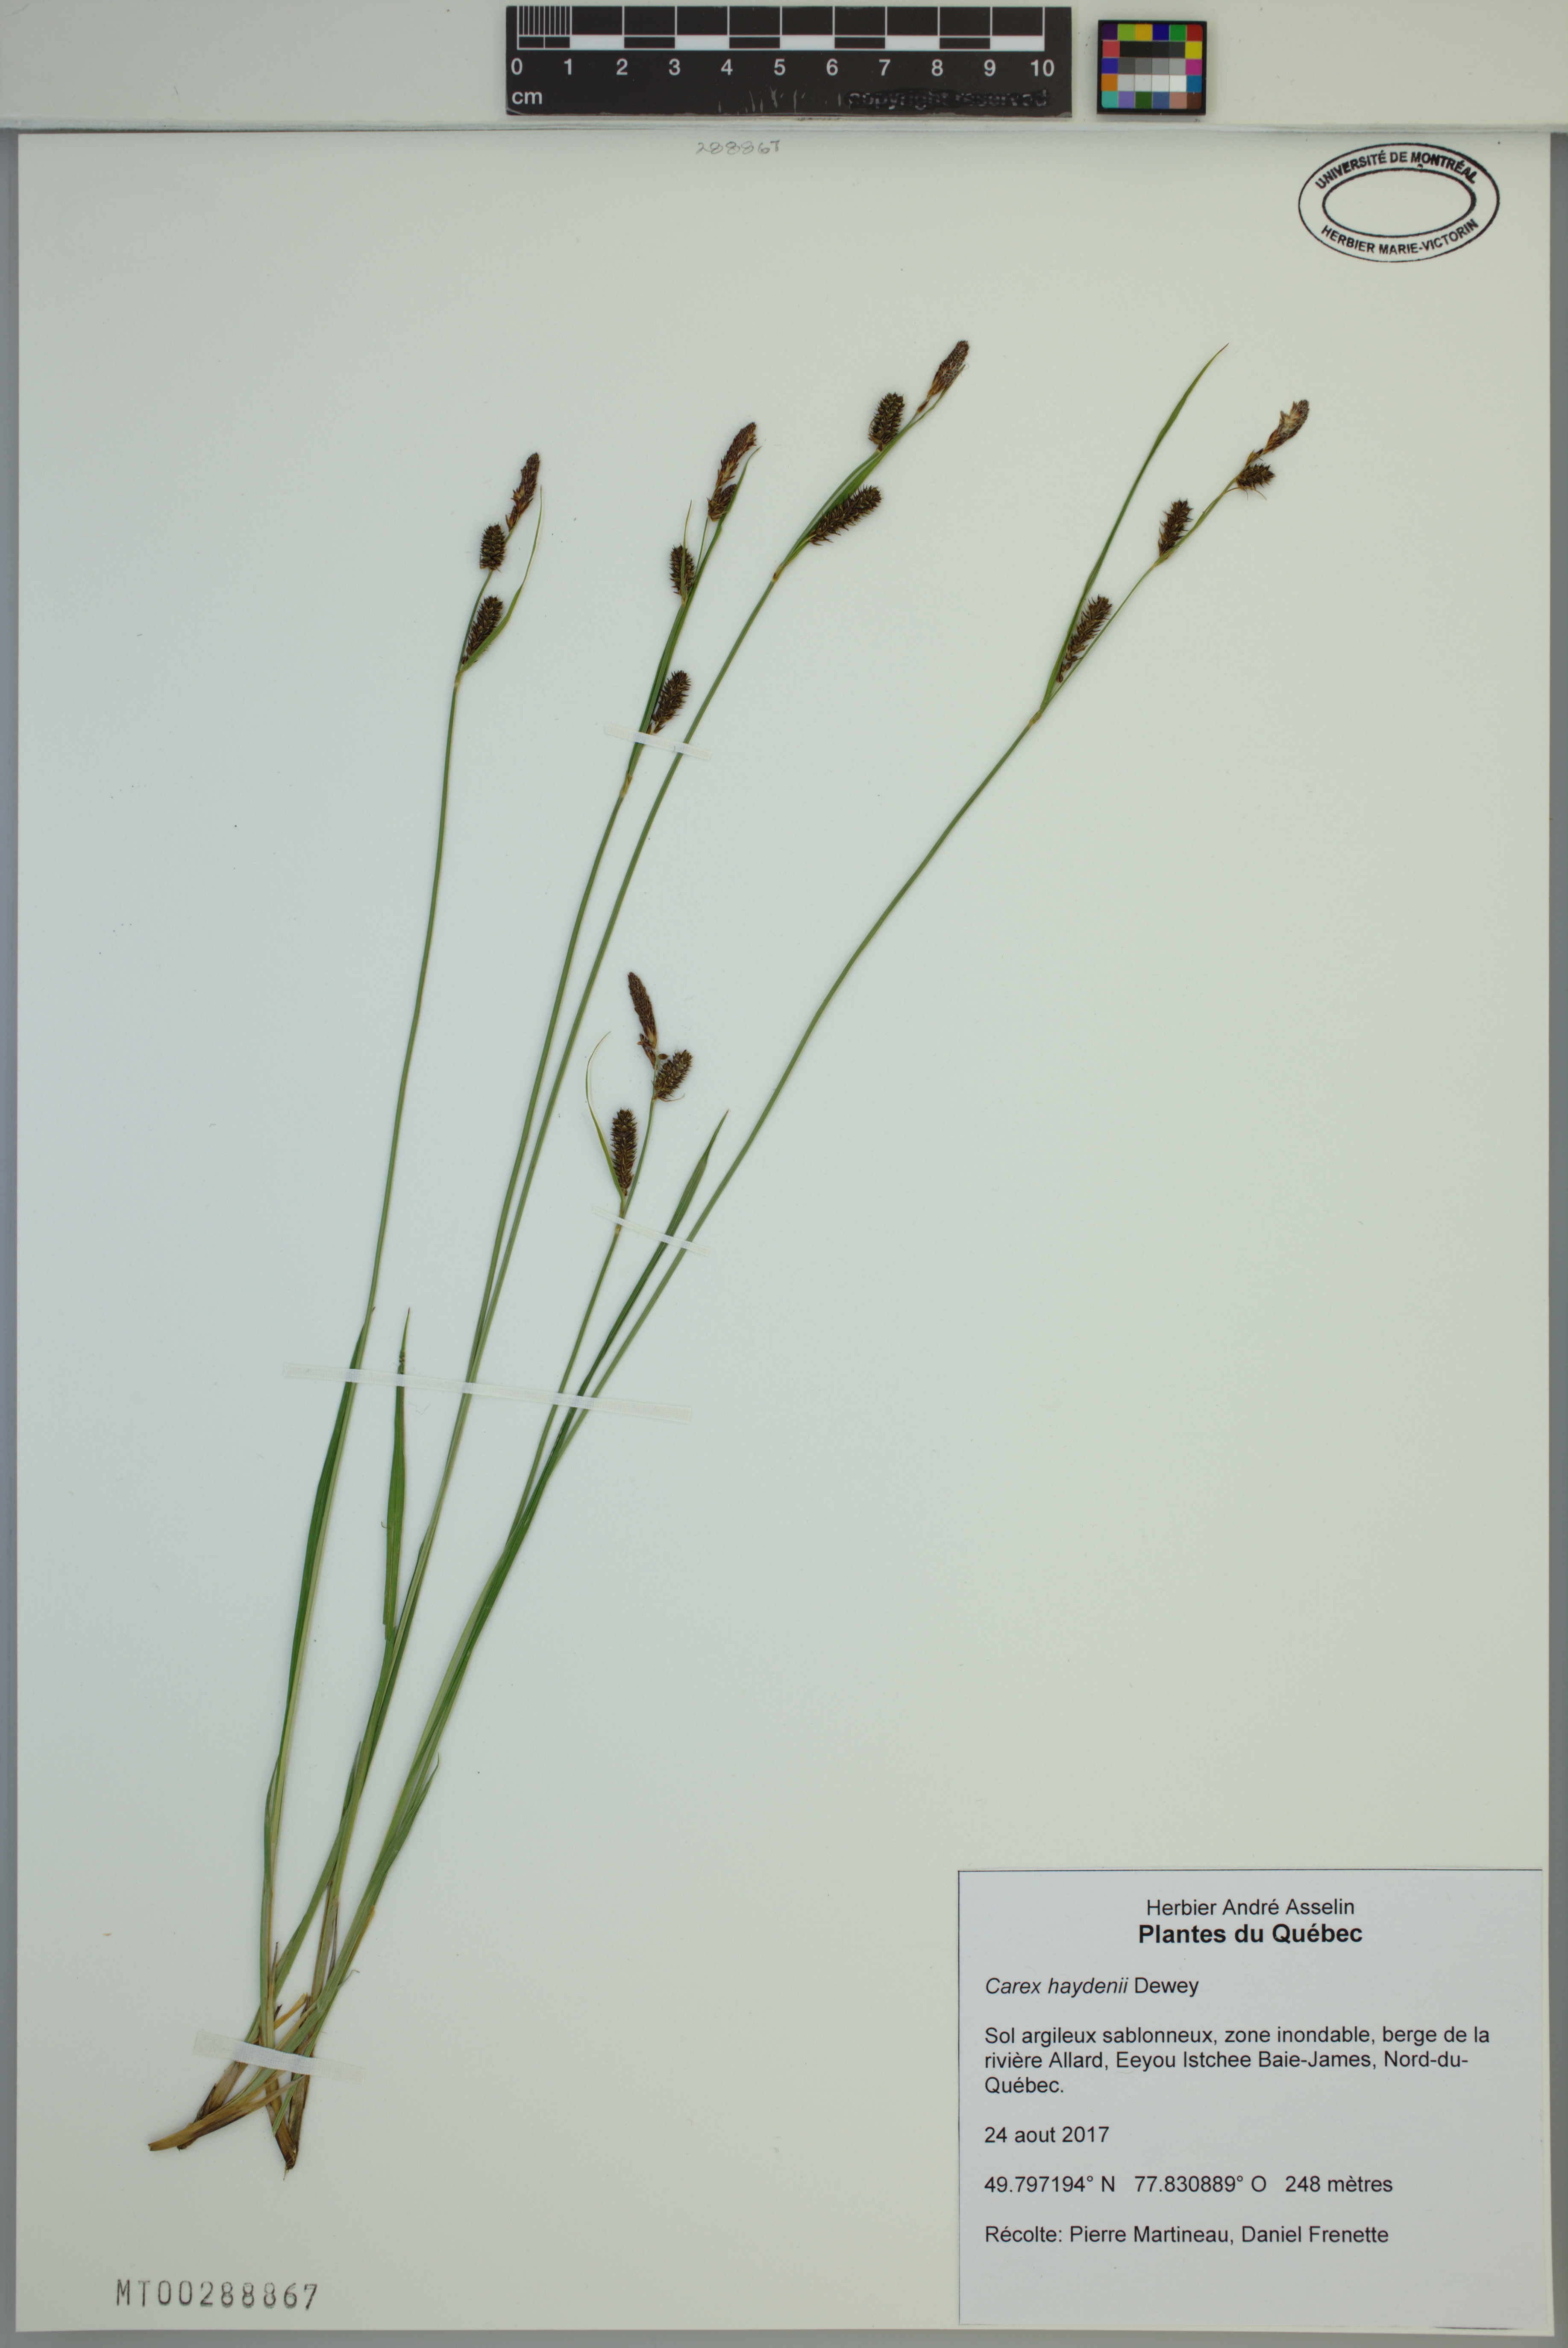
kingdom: Plantae
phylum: Tracheophyta
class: Liliopsida
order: Poales
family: Cyperaceae
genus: Carex
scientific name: Carex haydenii
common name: Hayden's sedge
